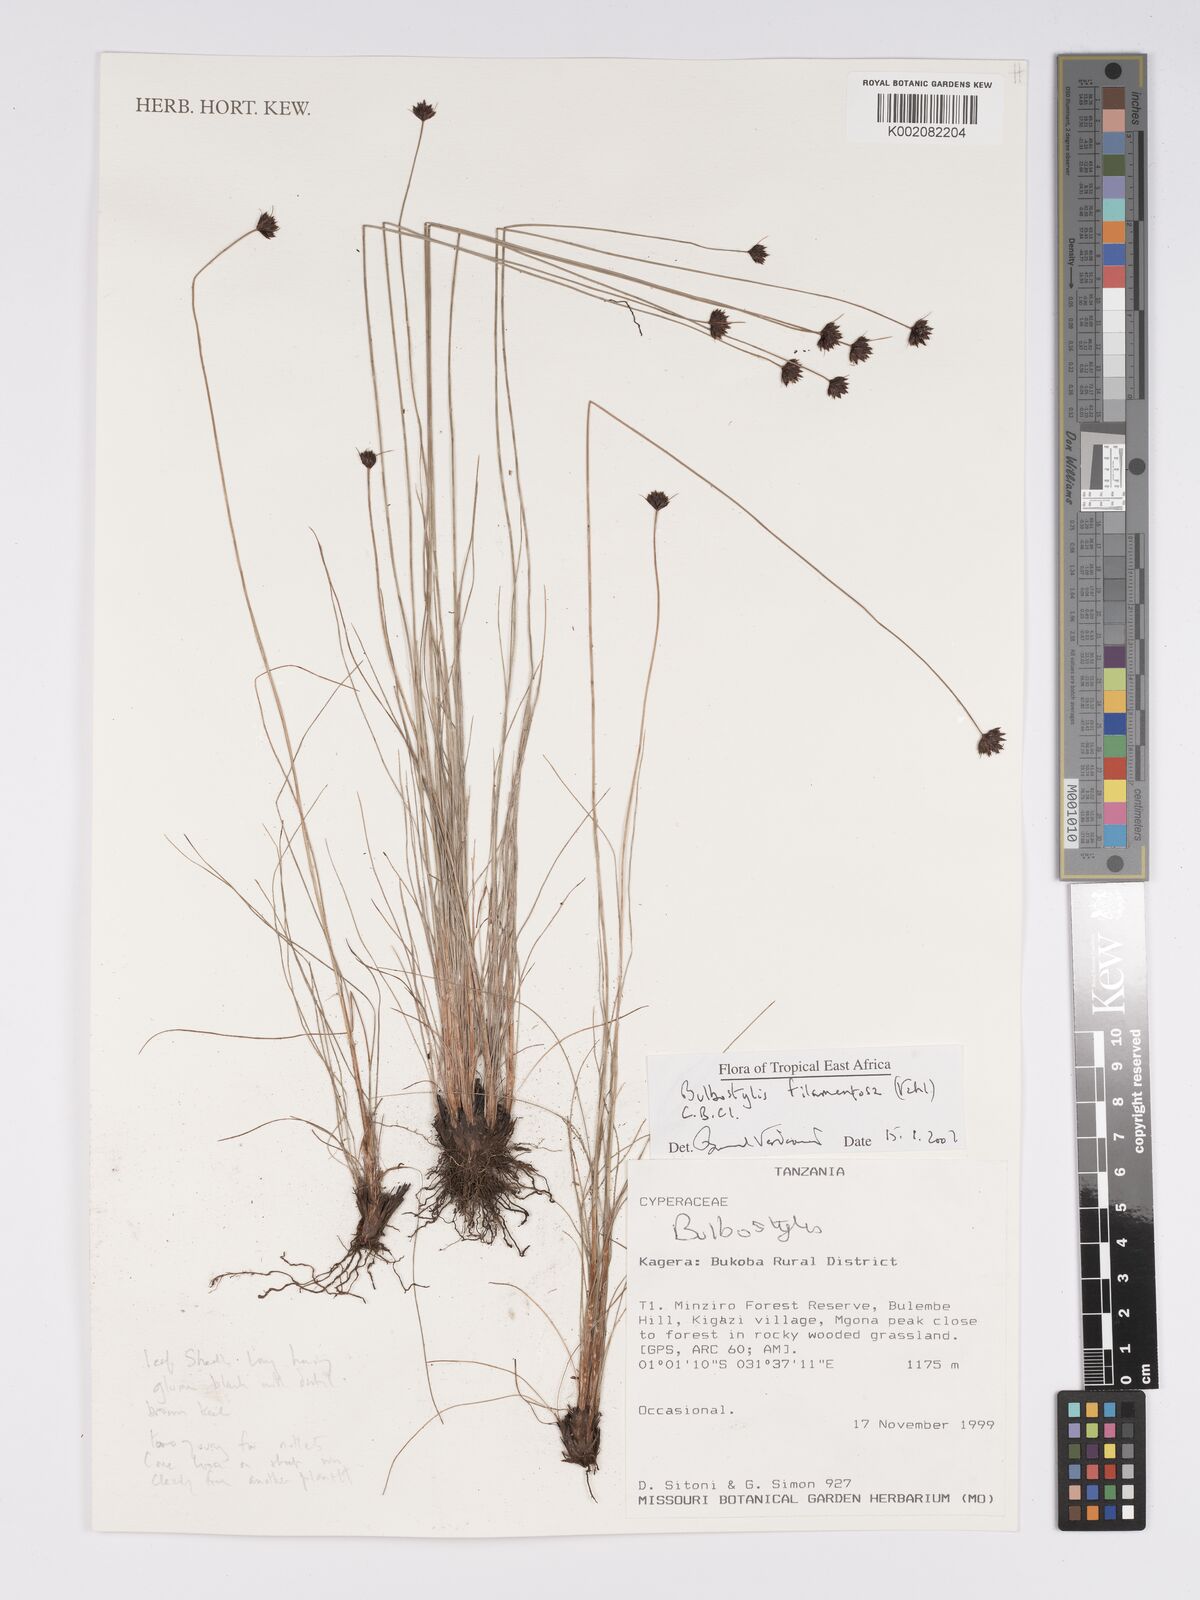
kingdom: Plantae
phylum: Tracheophyta
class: Liliopsida
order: Poales
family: Cyperaceae
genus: Bulbostylis
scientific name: Bulbostylis filamentosa
